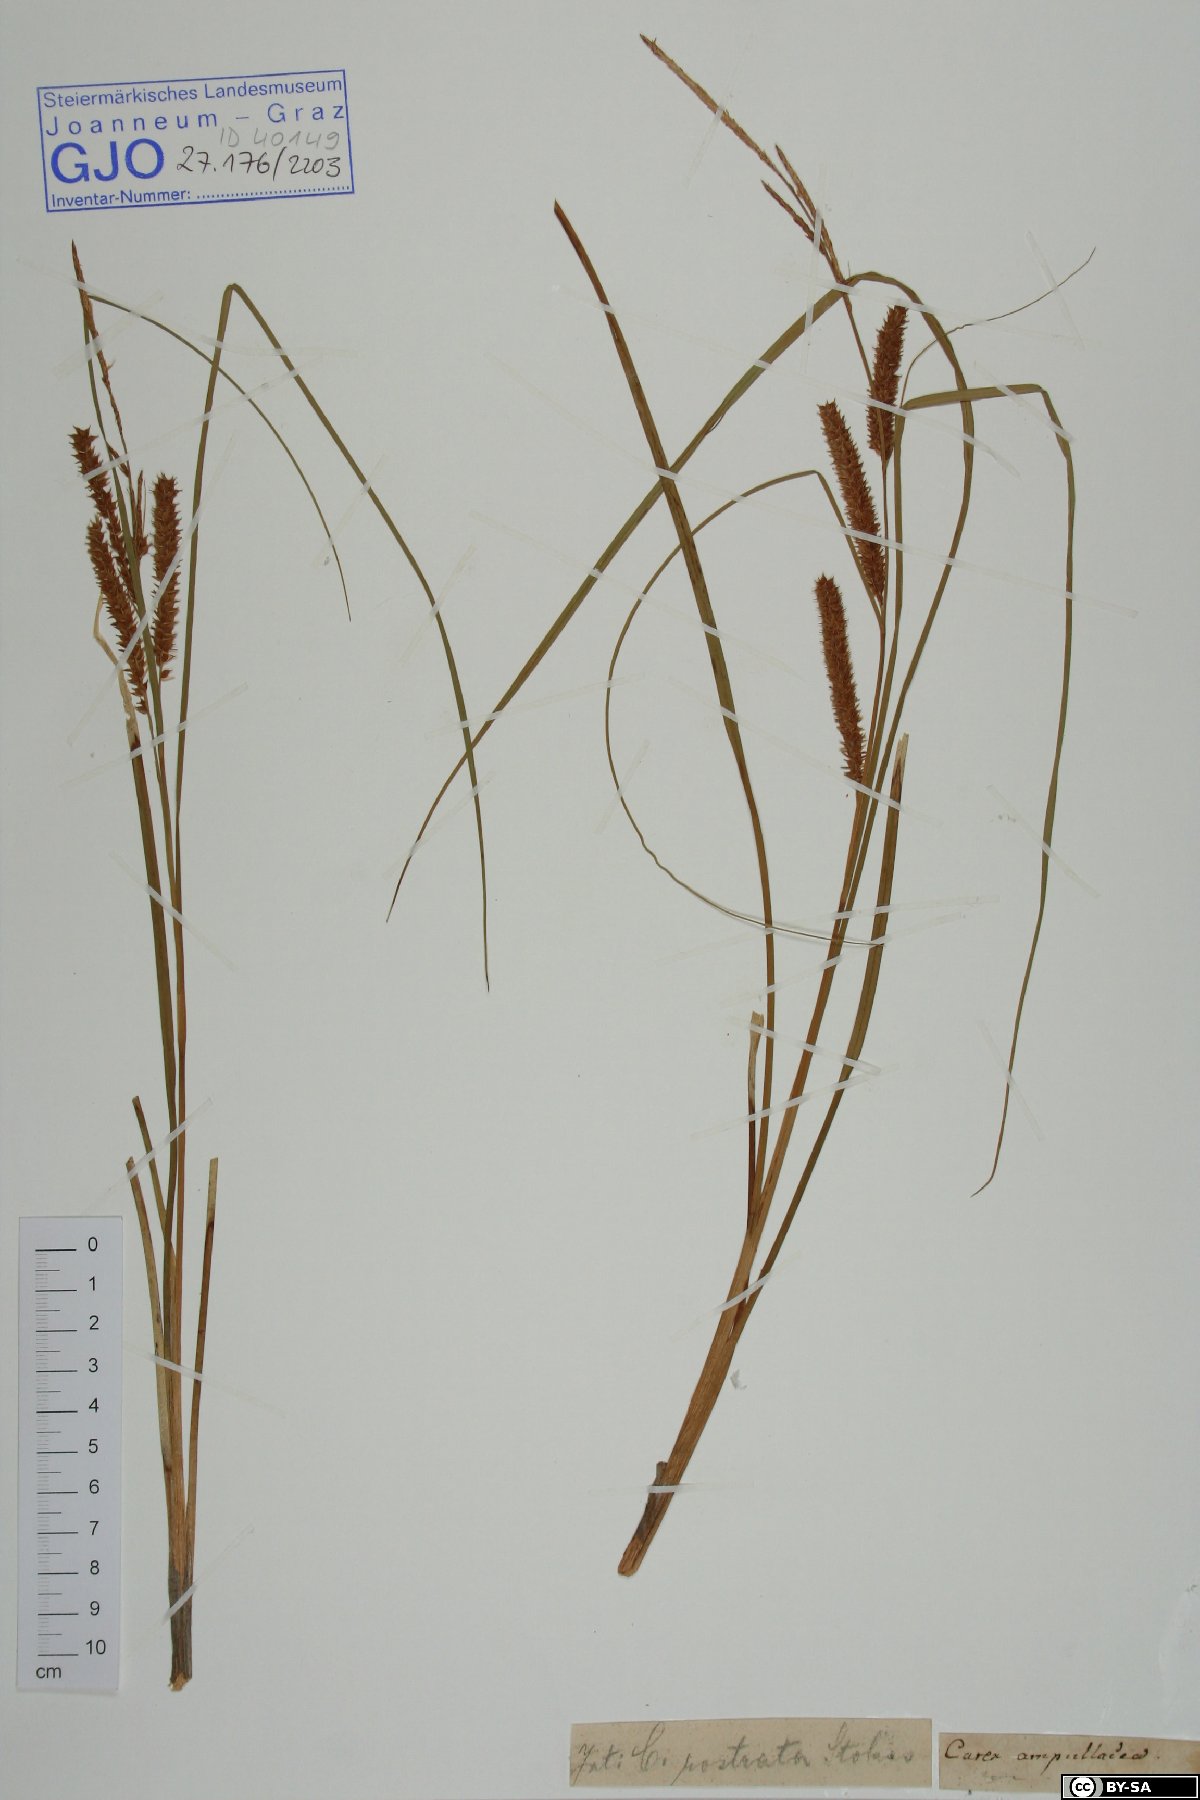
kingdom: Plantae
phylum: Tracheophyta
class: Liliopsida
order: Poales
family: Cyperaceae
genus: Carex
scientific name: Carex rostrata
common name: Bottle sedge
